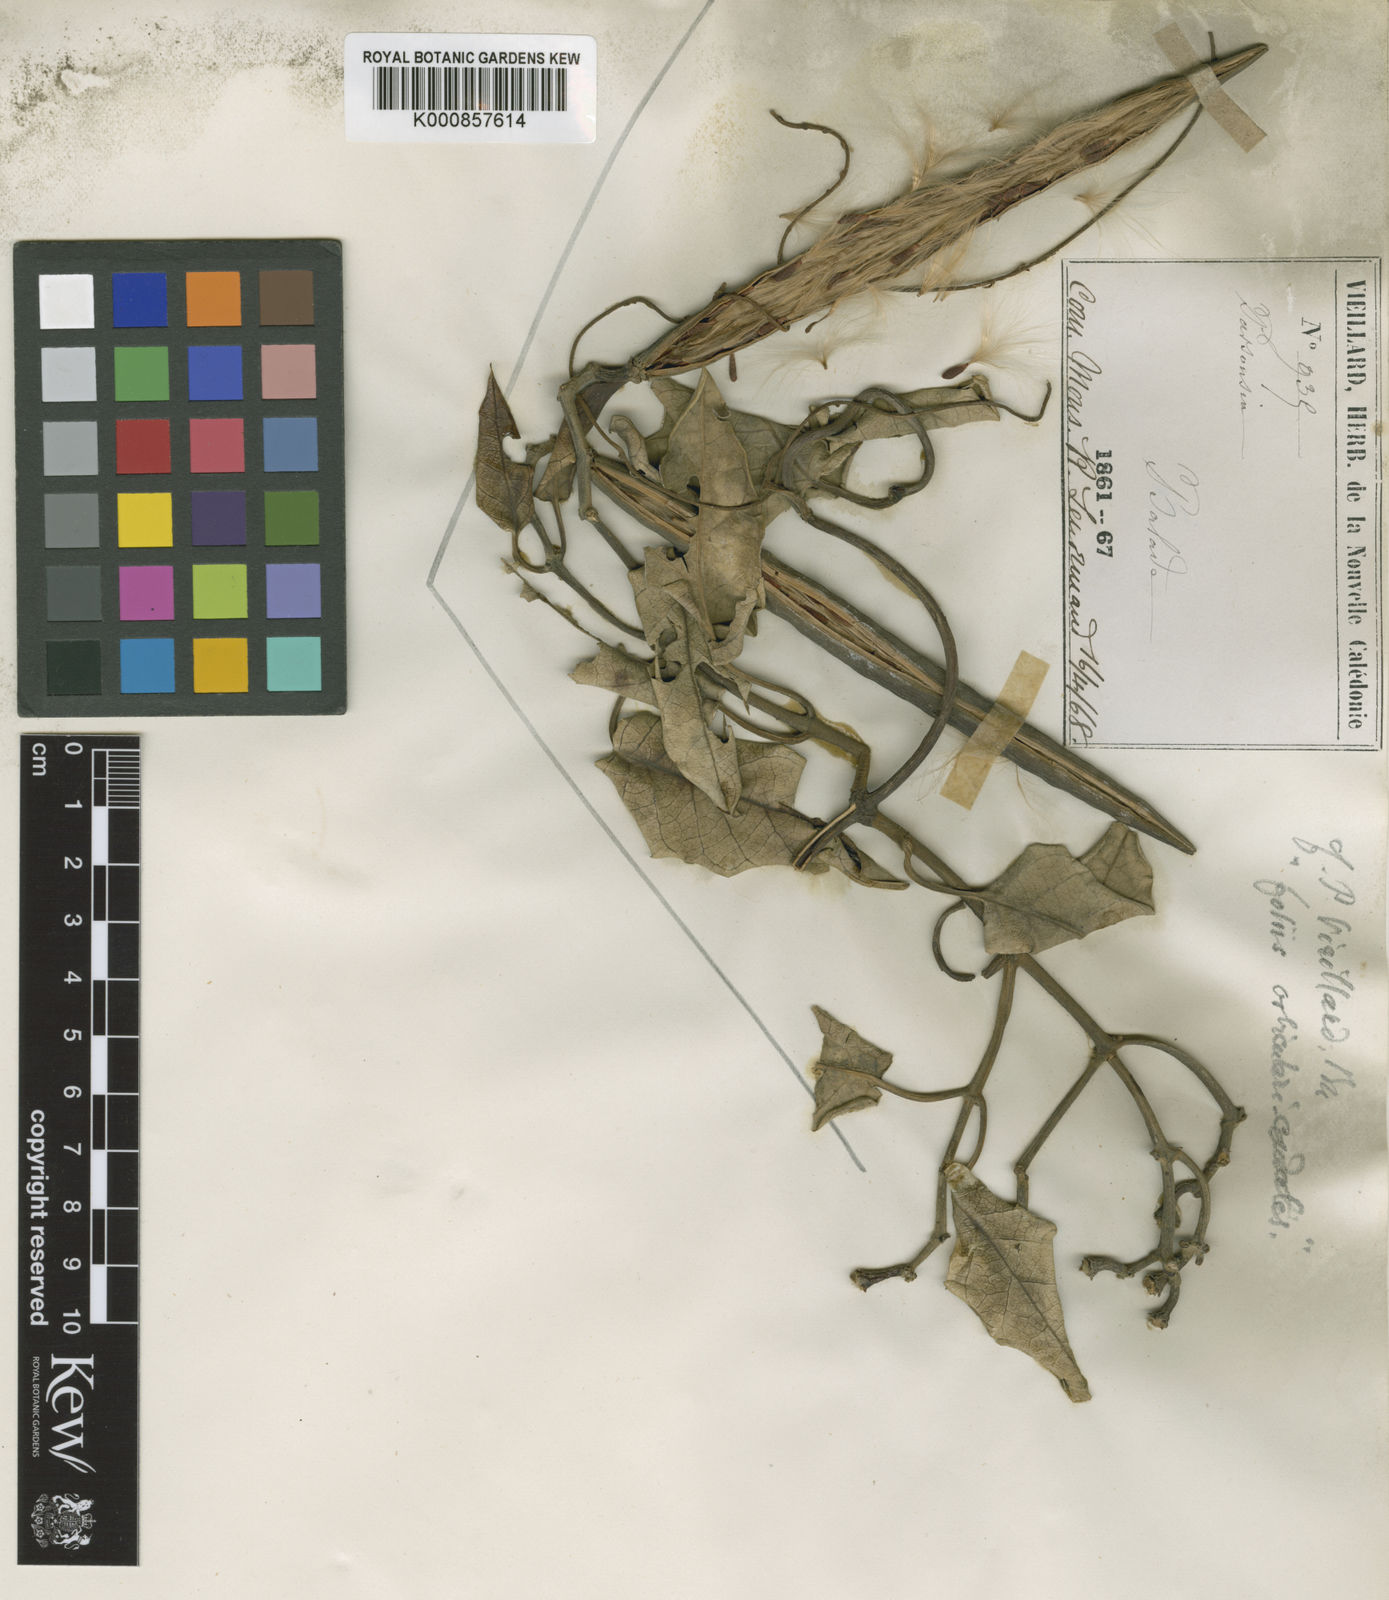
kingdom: Plantae
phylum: Tracheophyta
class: Magnoliopsida
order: Gentianales
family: Apocynaceae
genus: Parsonsia
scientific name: Parsonsia catalpicarpa
